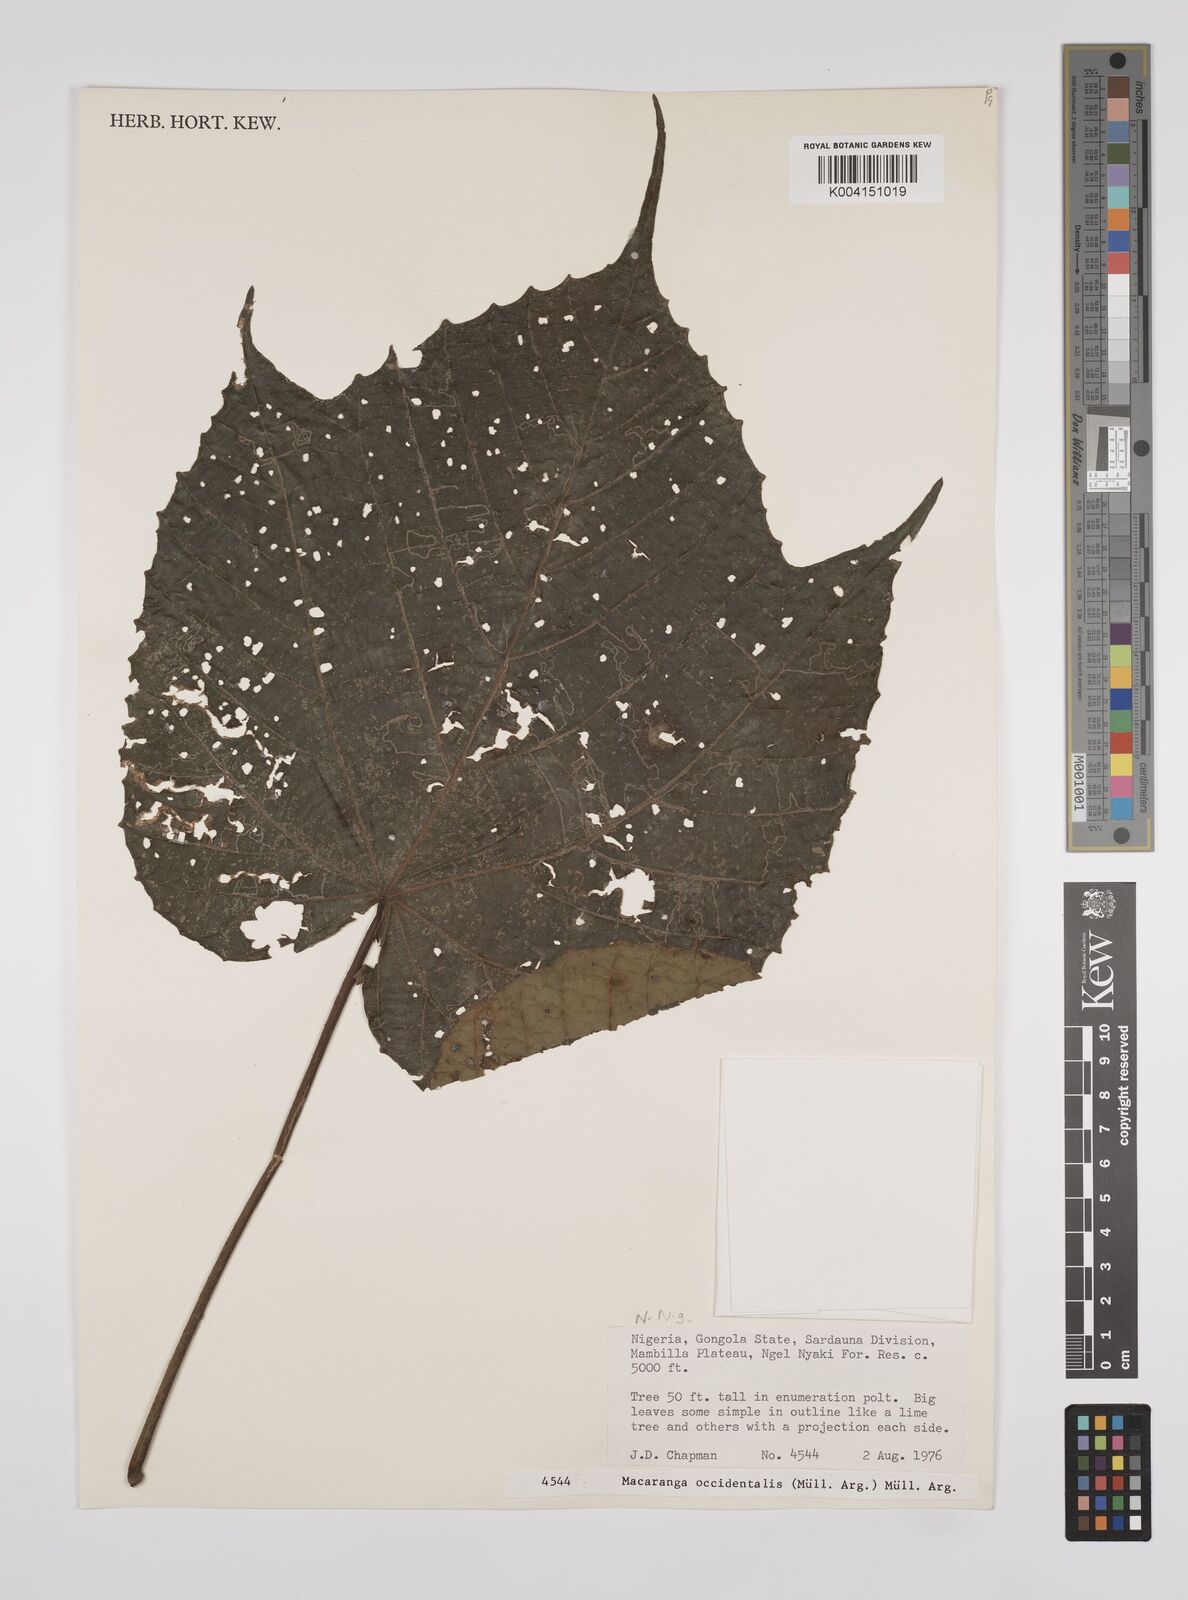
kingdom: Plantae
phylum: Tracheophyta
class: Magnoliopsida
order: Malpighiales
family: Euphorbiaceae
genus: Macaranga
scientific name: Macaranga occidentalis
